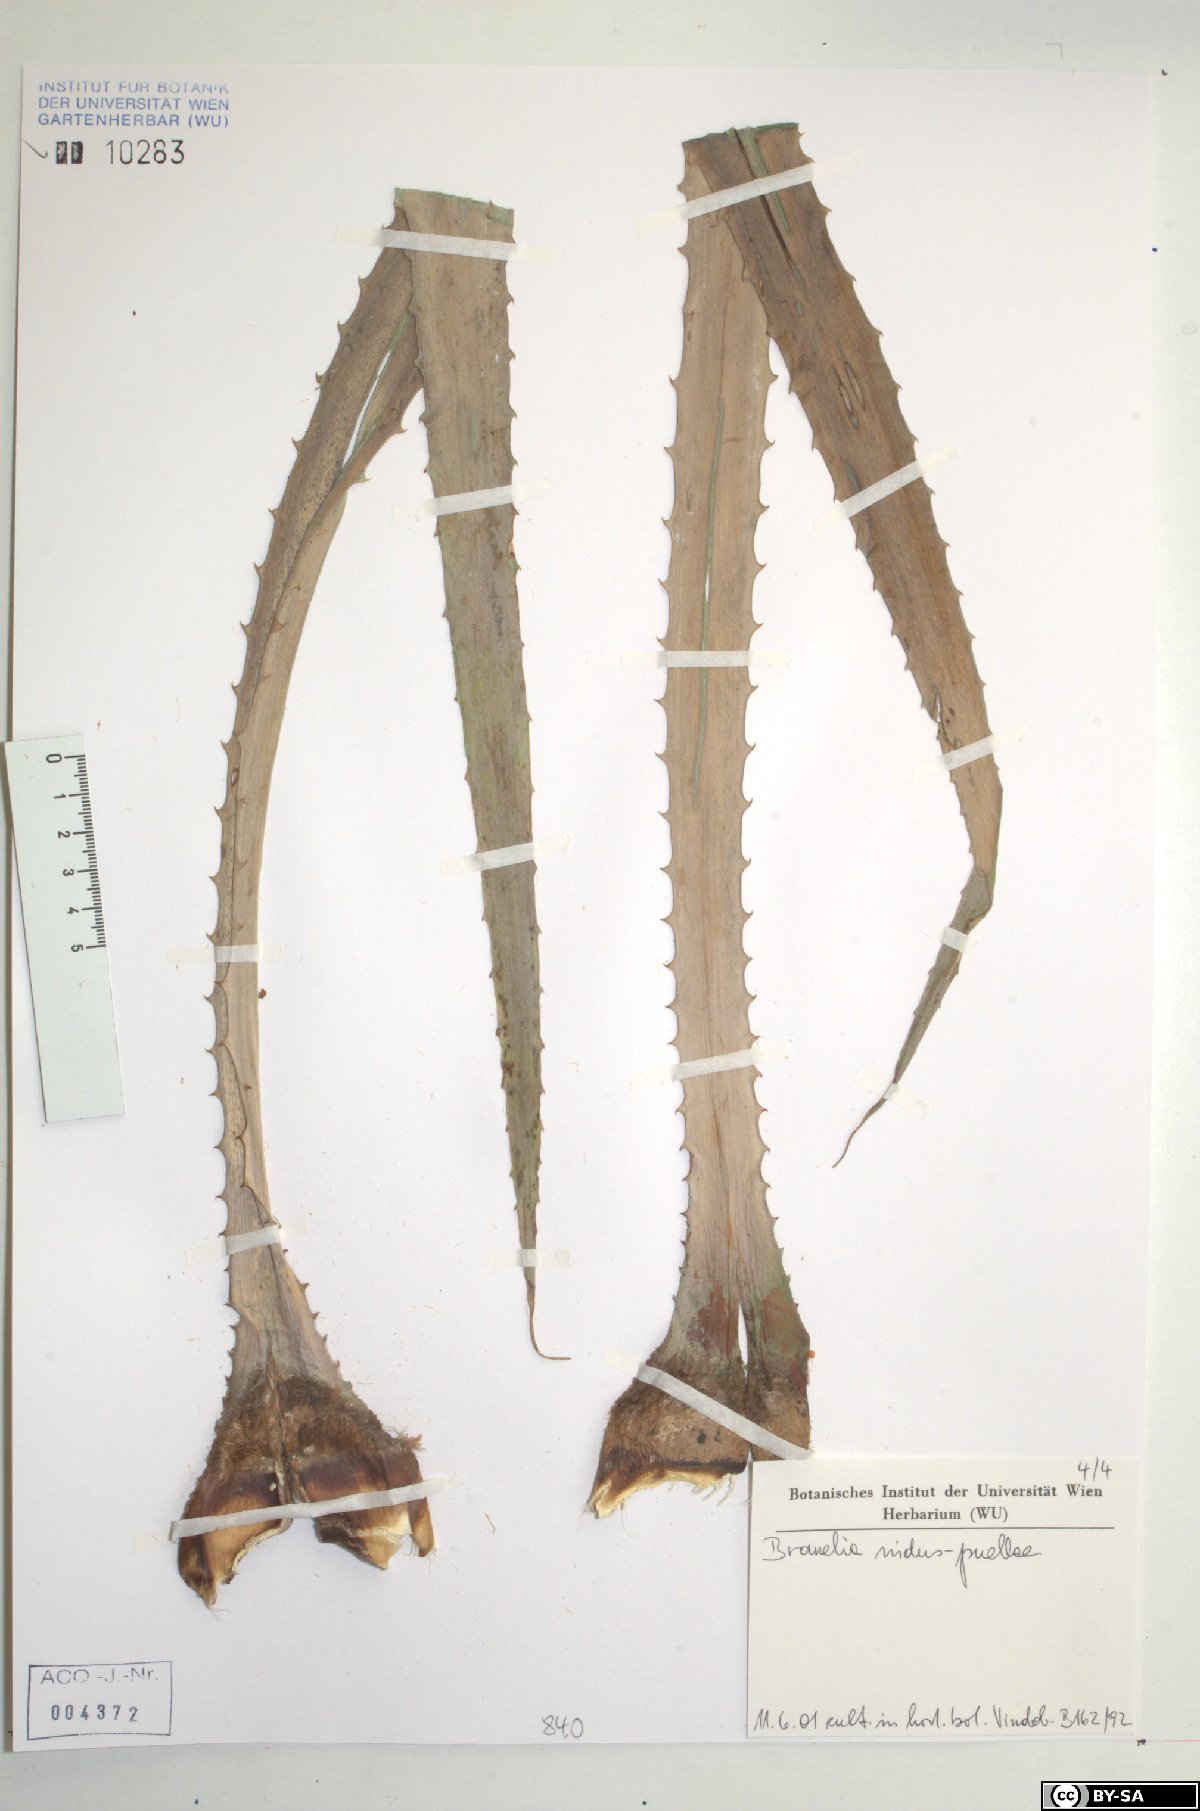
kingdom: Plantae
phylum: Tracheophyta
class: Liliopsida
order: Poales
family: Bromeliaceae
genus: Bromelia
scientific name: Bromelia nidus-puellae
